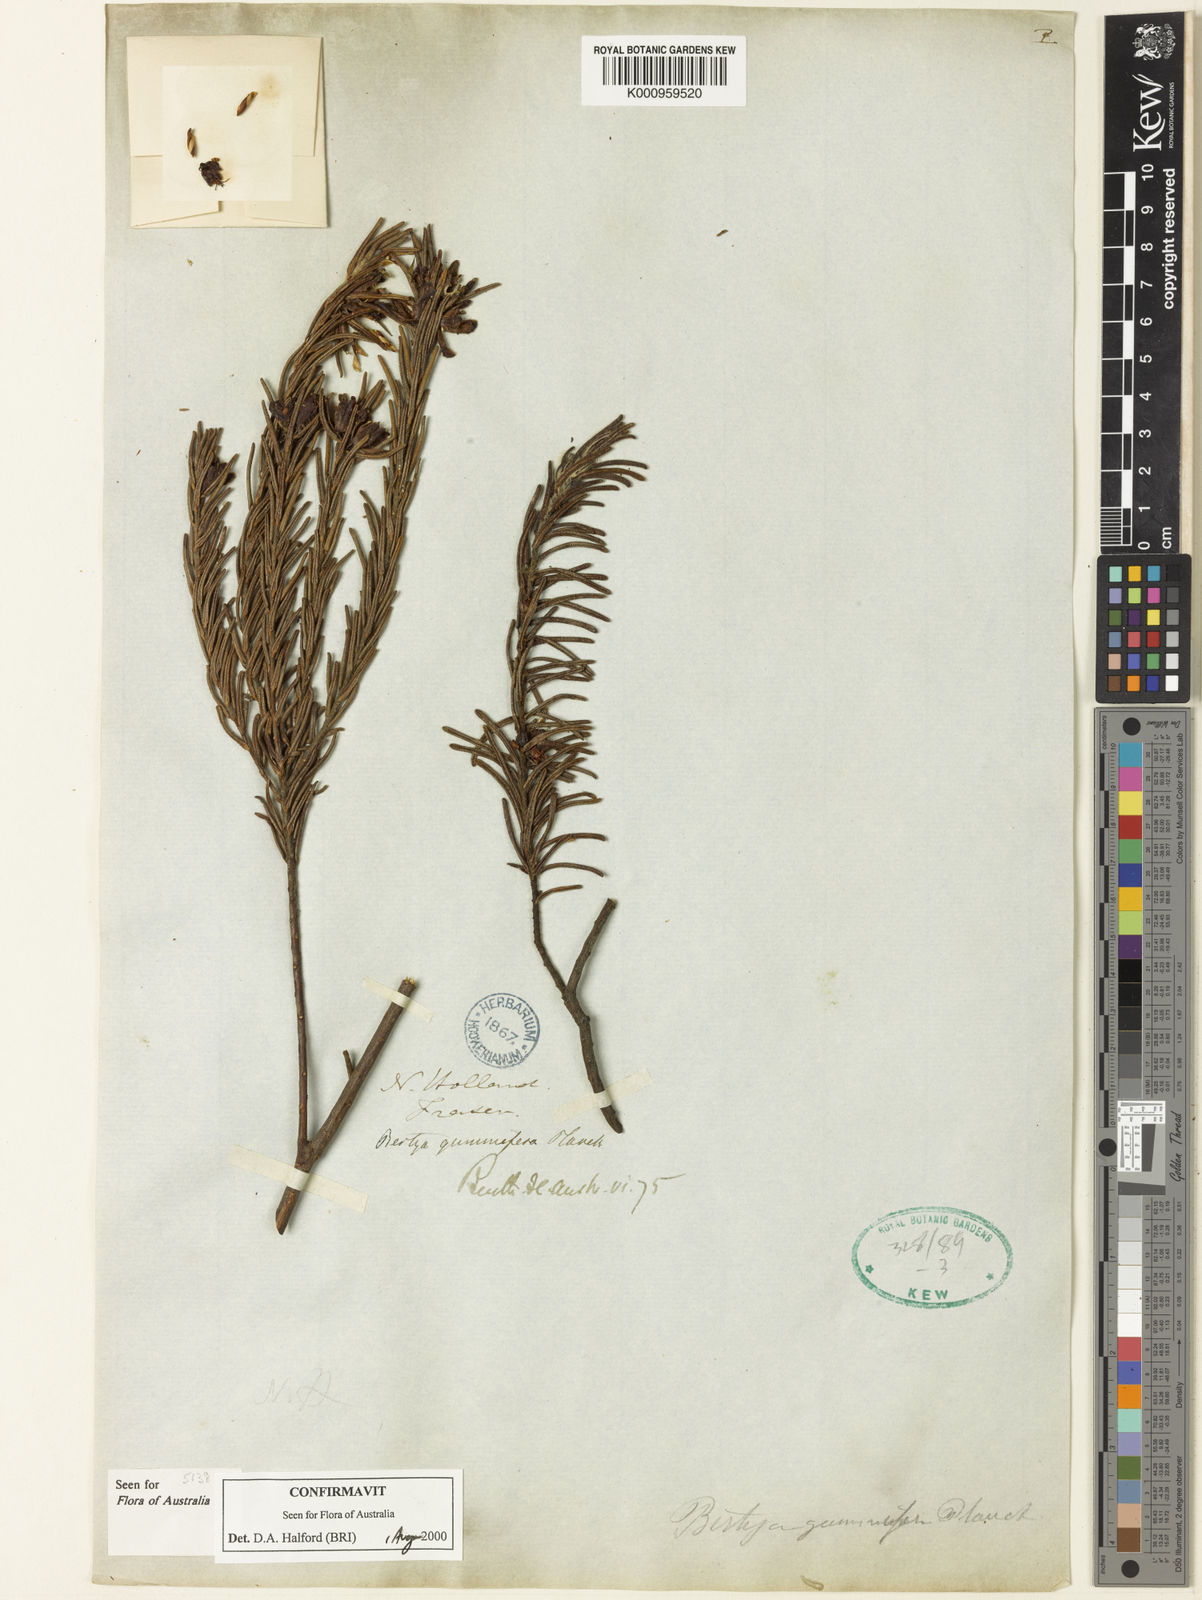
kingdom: Plantae
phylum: Tracheophyta
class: Magnoliopsida
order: Malpighiales
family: Euphorbiaceae
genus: Bertya
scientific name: Bertya gummifera
